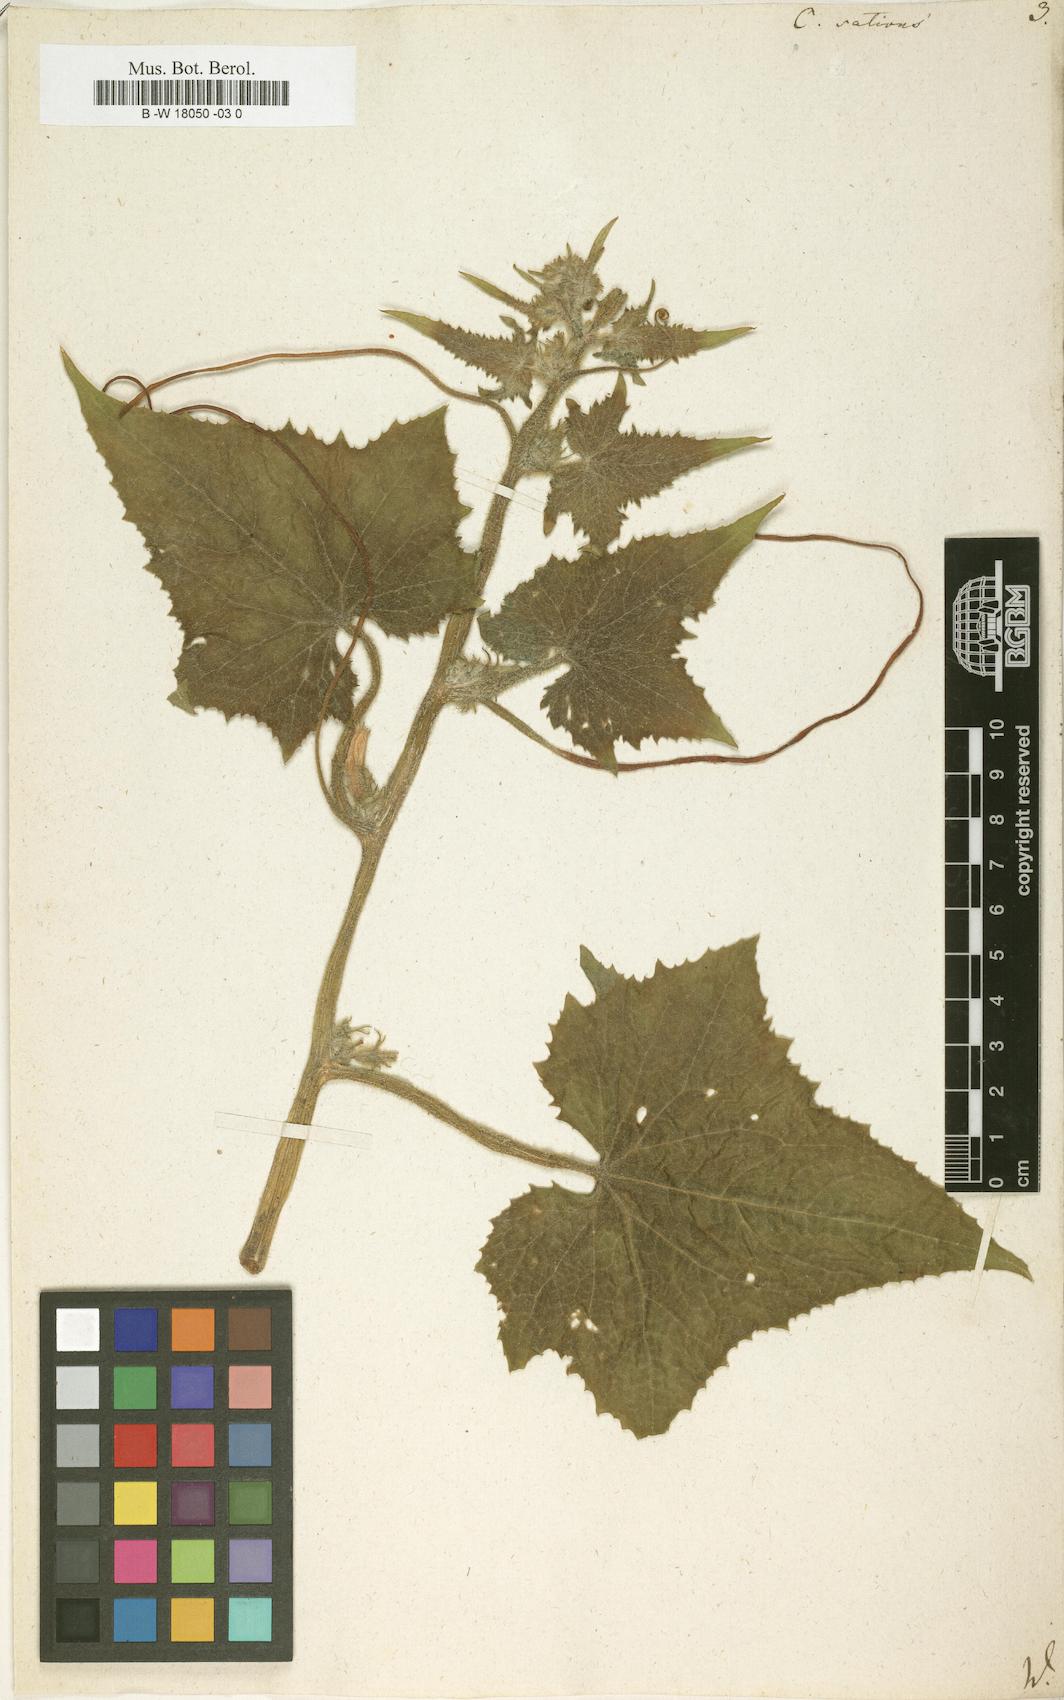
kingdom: Plantae
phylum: Tracheophyta
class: Magnoliopsida
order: Cucurbitales
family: Cucurbitaceae
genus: Cucumis
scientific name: Cucumis sativus
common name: Cucumber
